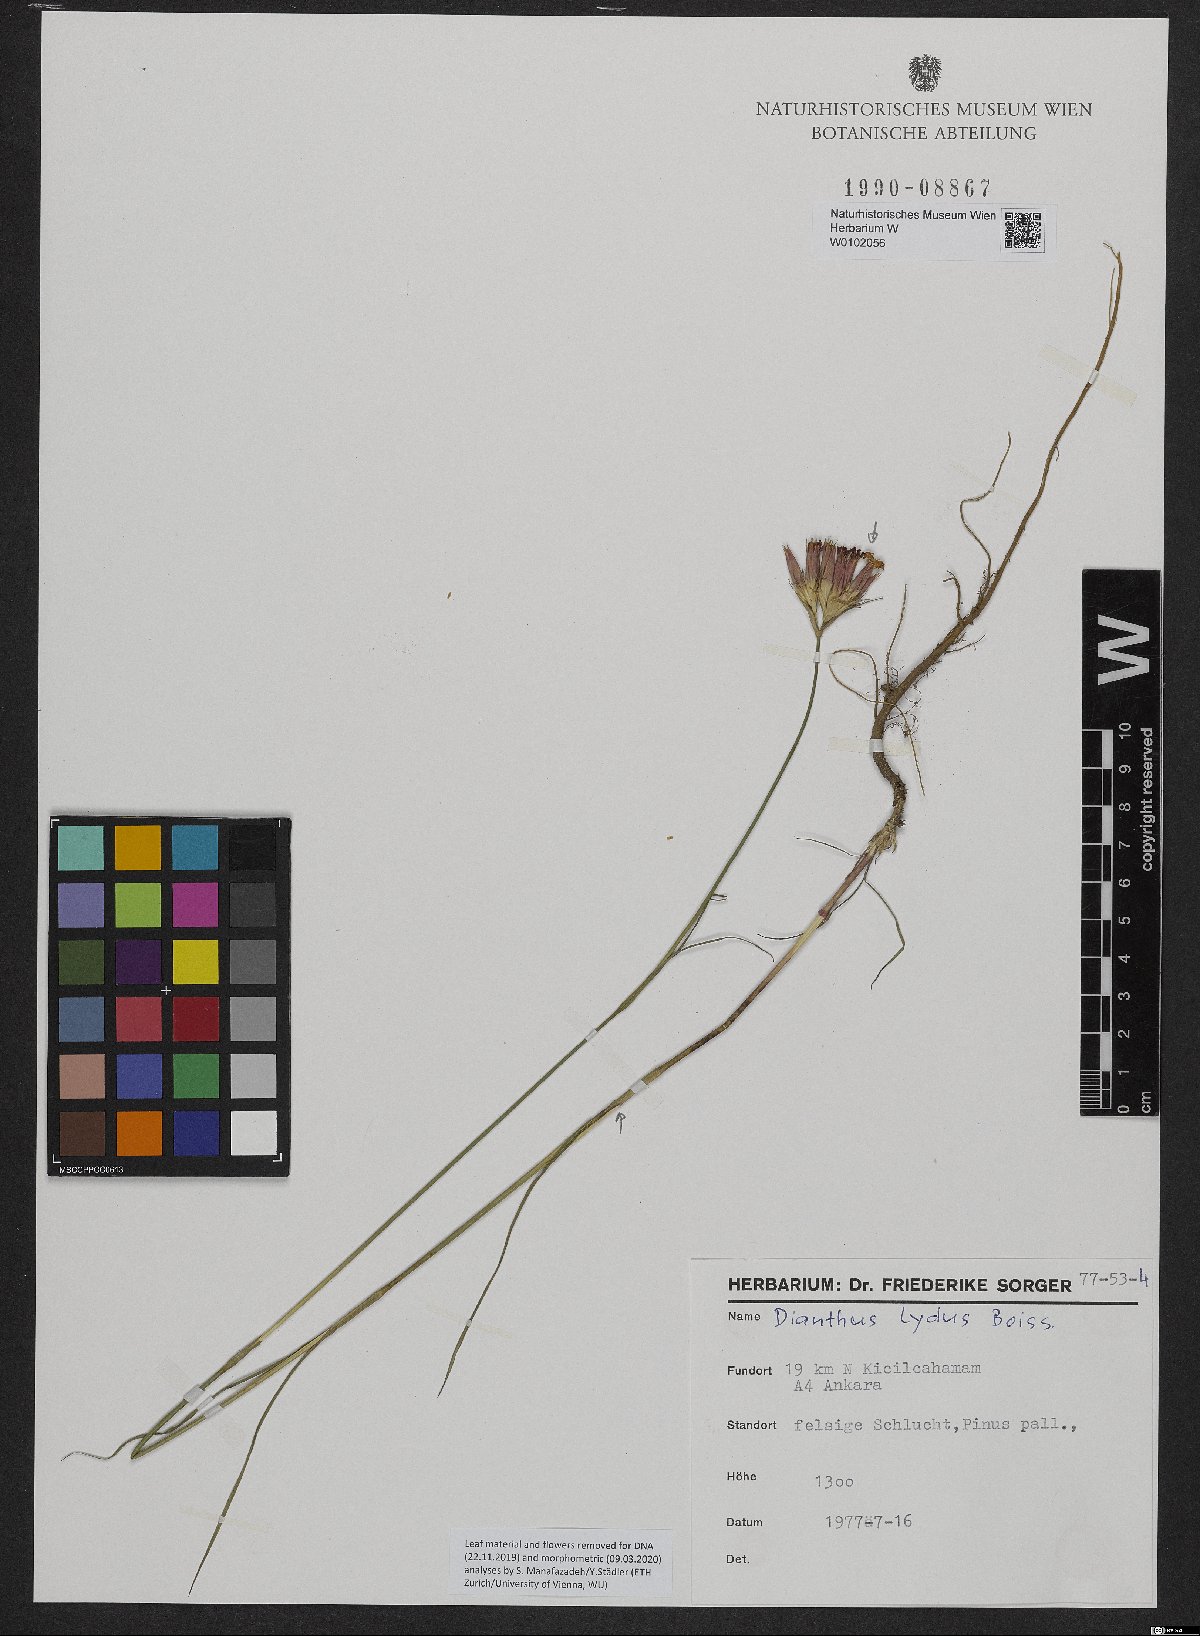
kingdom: Plantae
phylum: Tracheophyta
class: Magnoliopsida
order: Caryophyllales
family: Caryophyllaceae
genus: Dianthus
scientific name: Dianthus lydus
